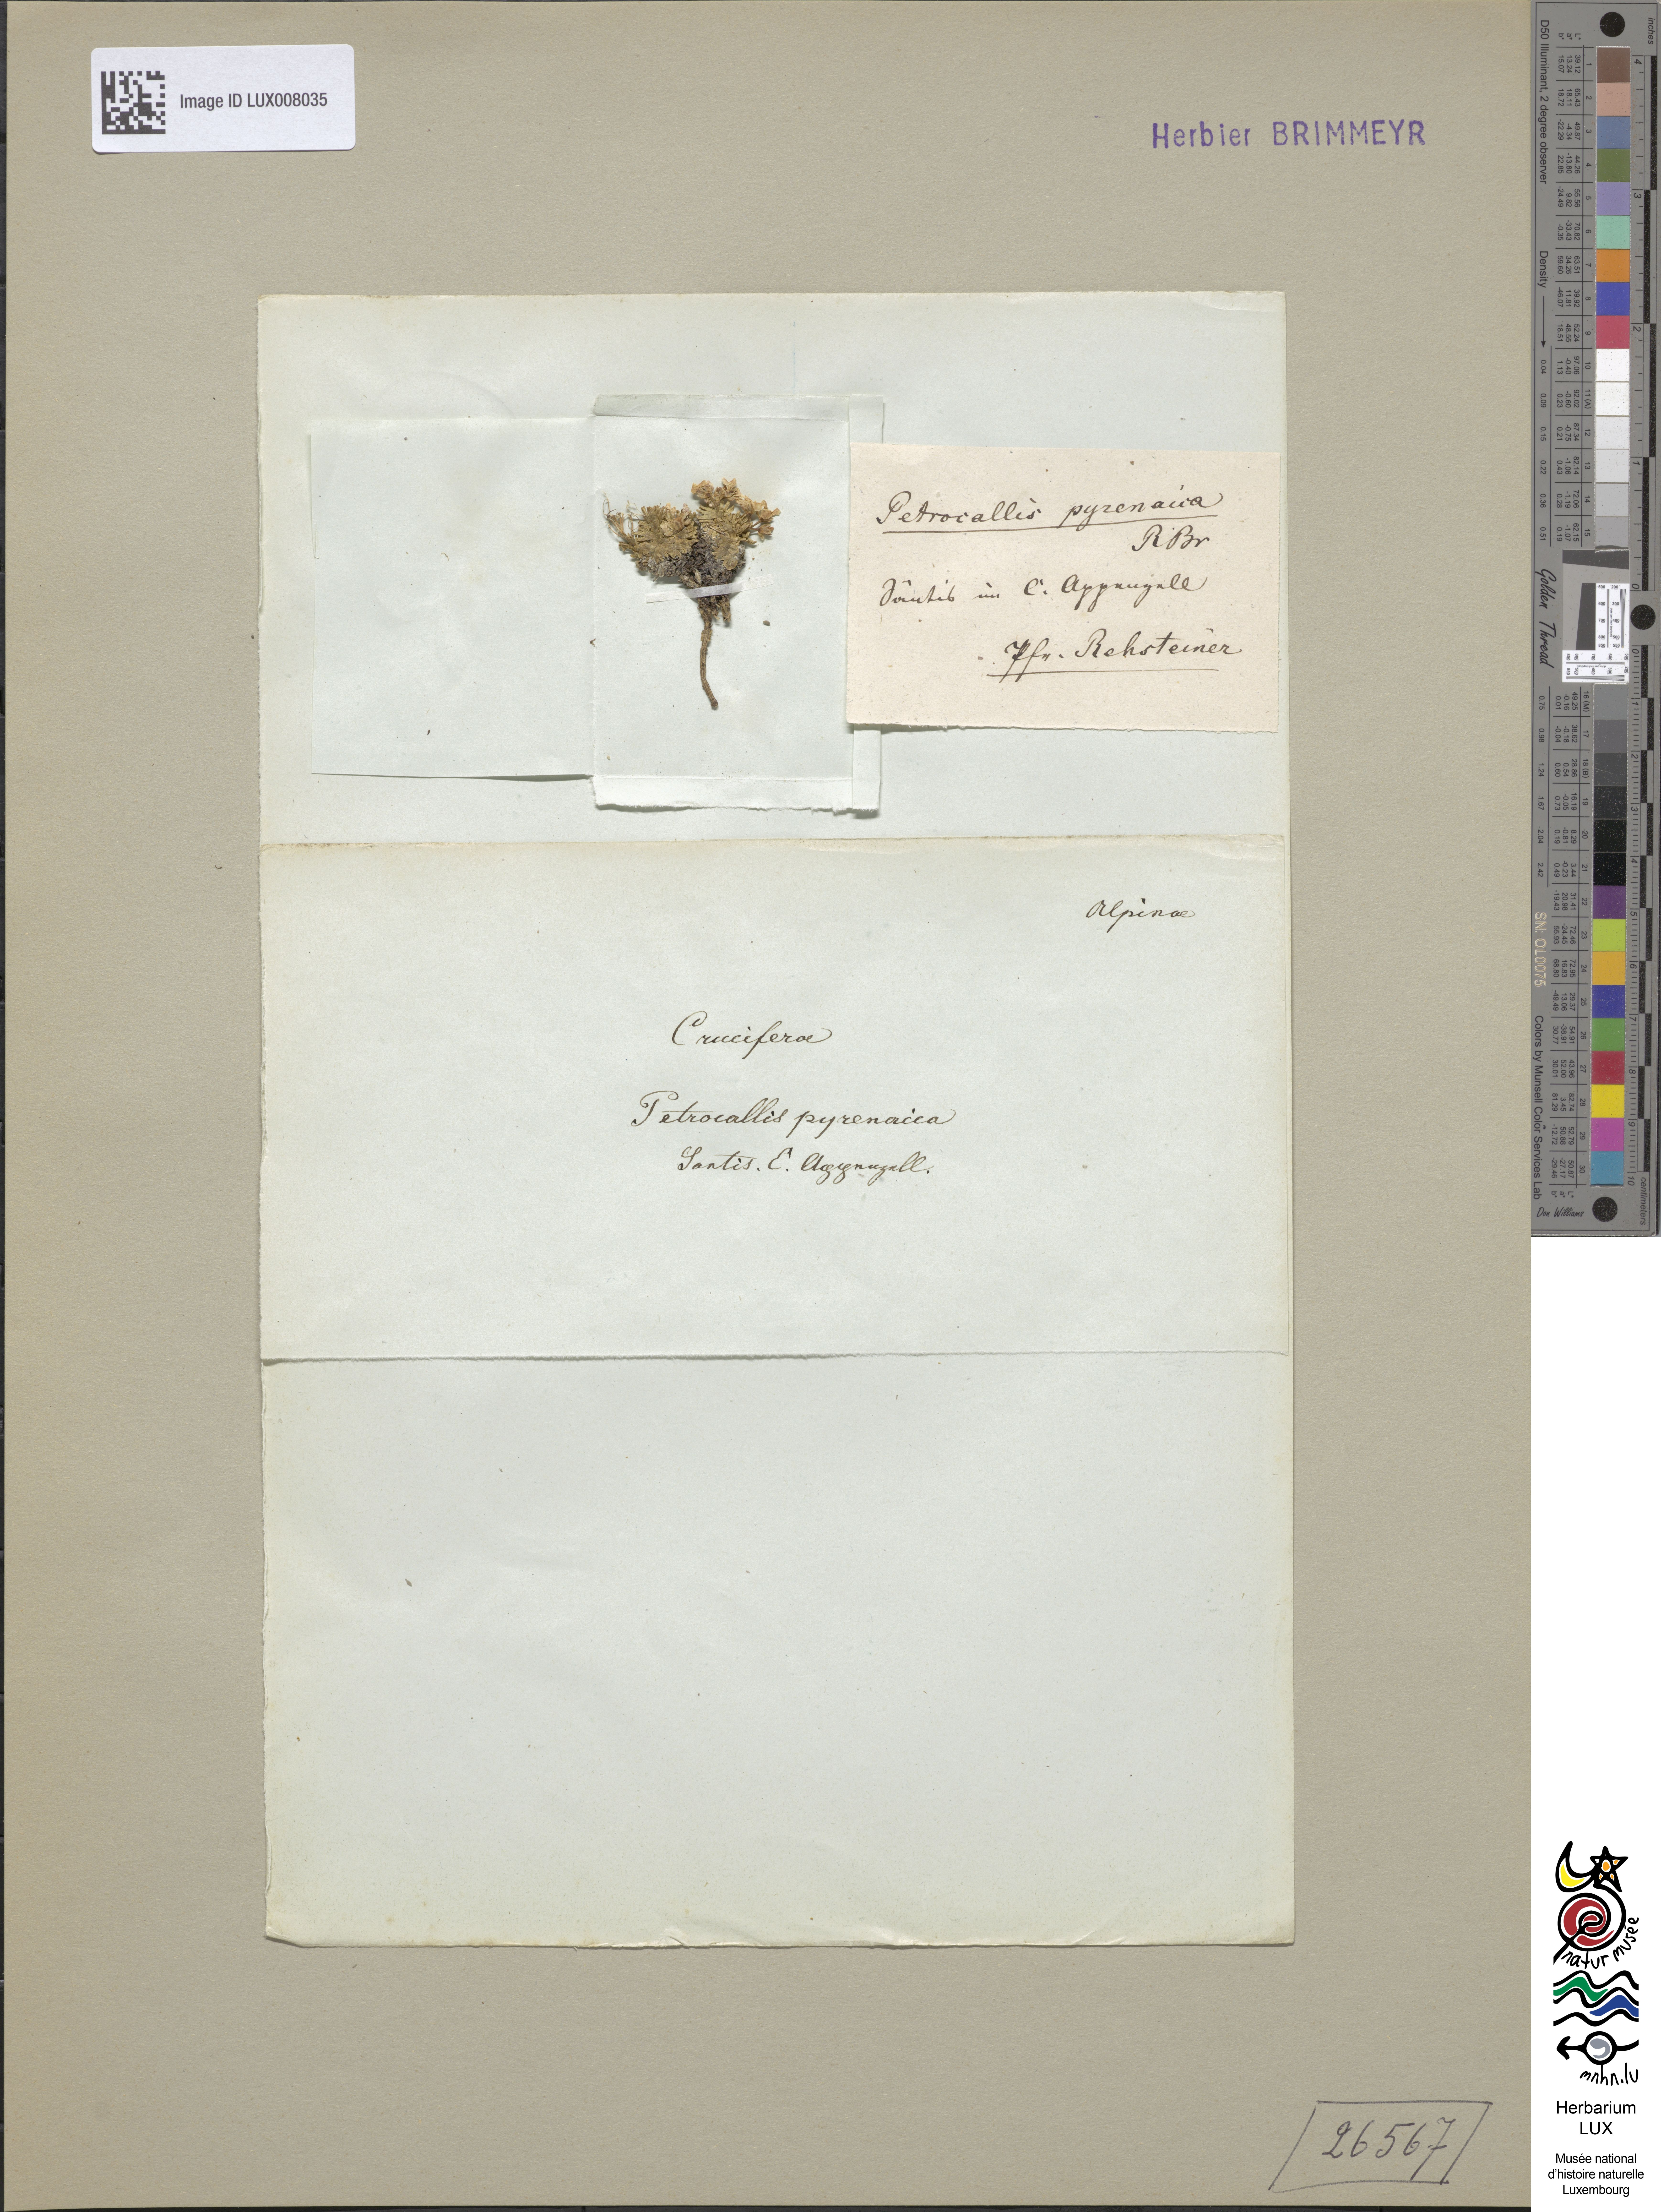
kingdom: Plantae
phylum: Tracheophyta
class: Magnoliopsida
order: Brassicales
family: Brassicaceae
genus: Petrocallis
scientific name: Petrocallis pyrenaica
